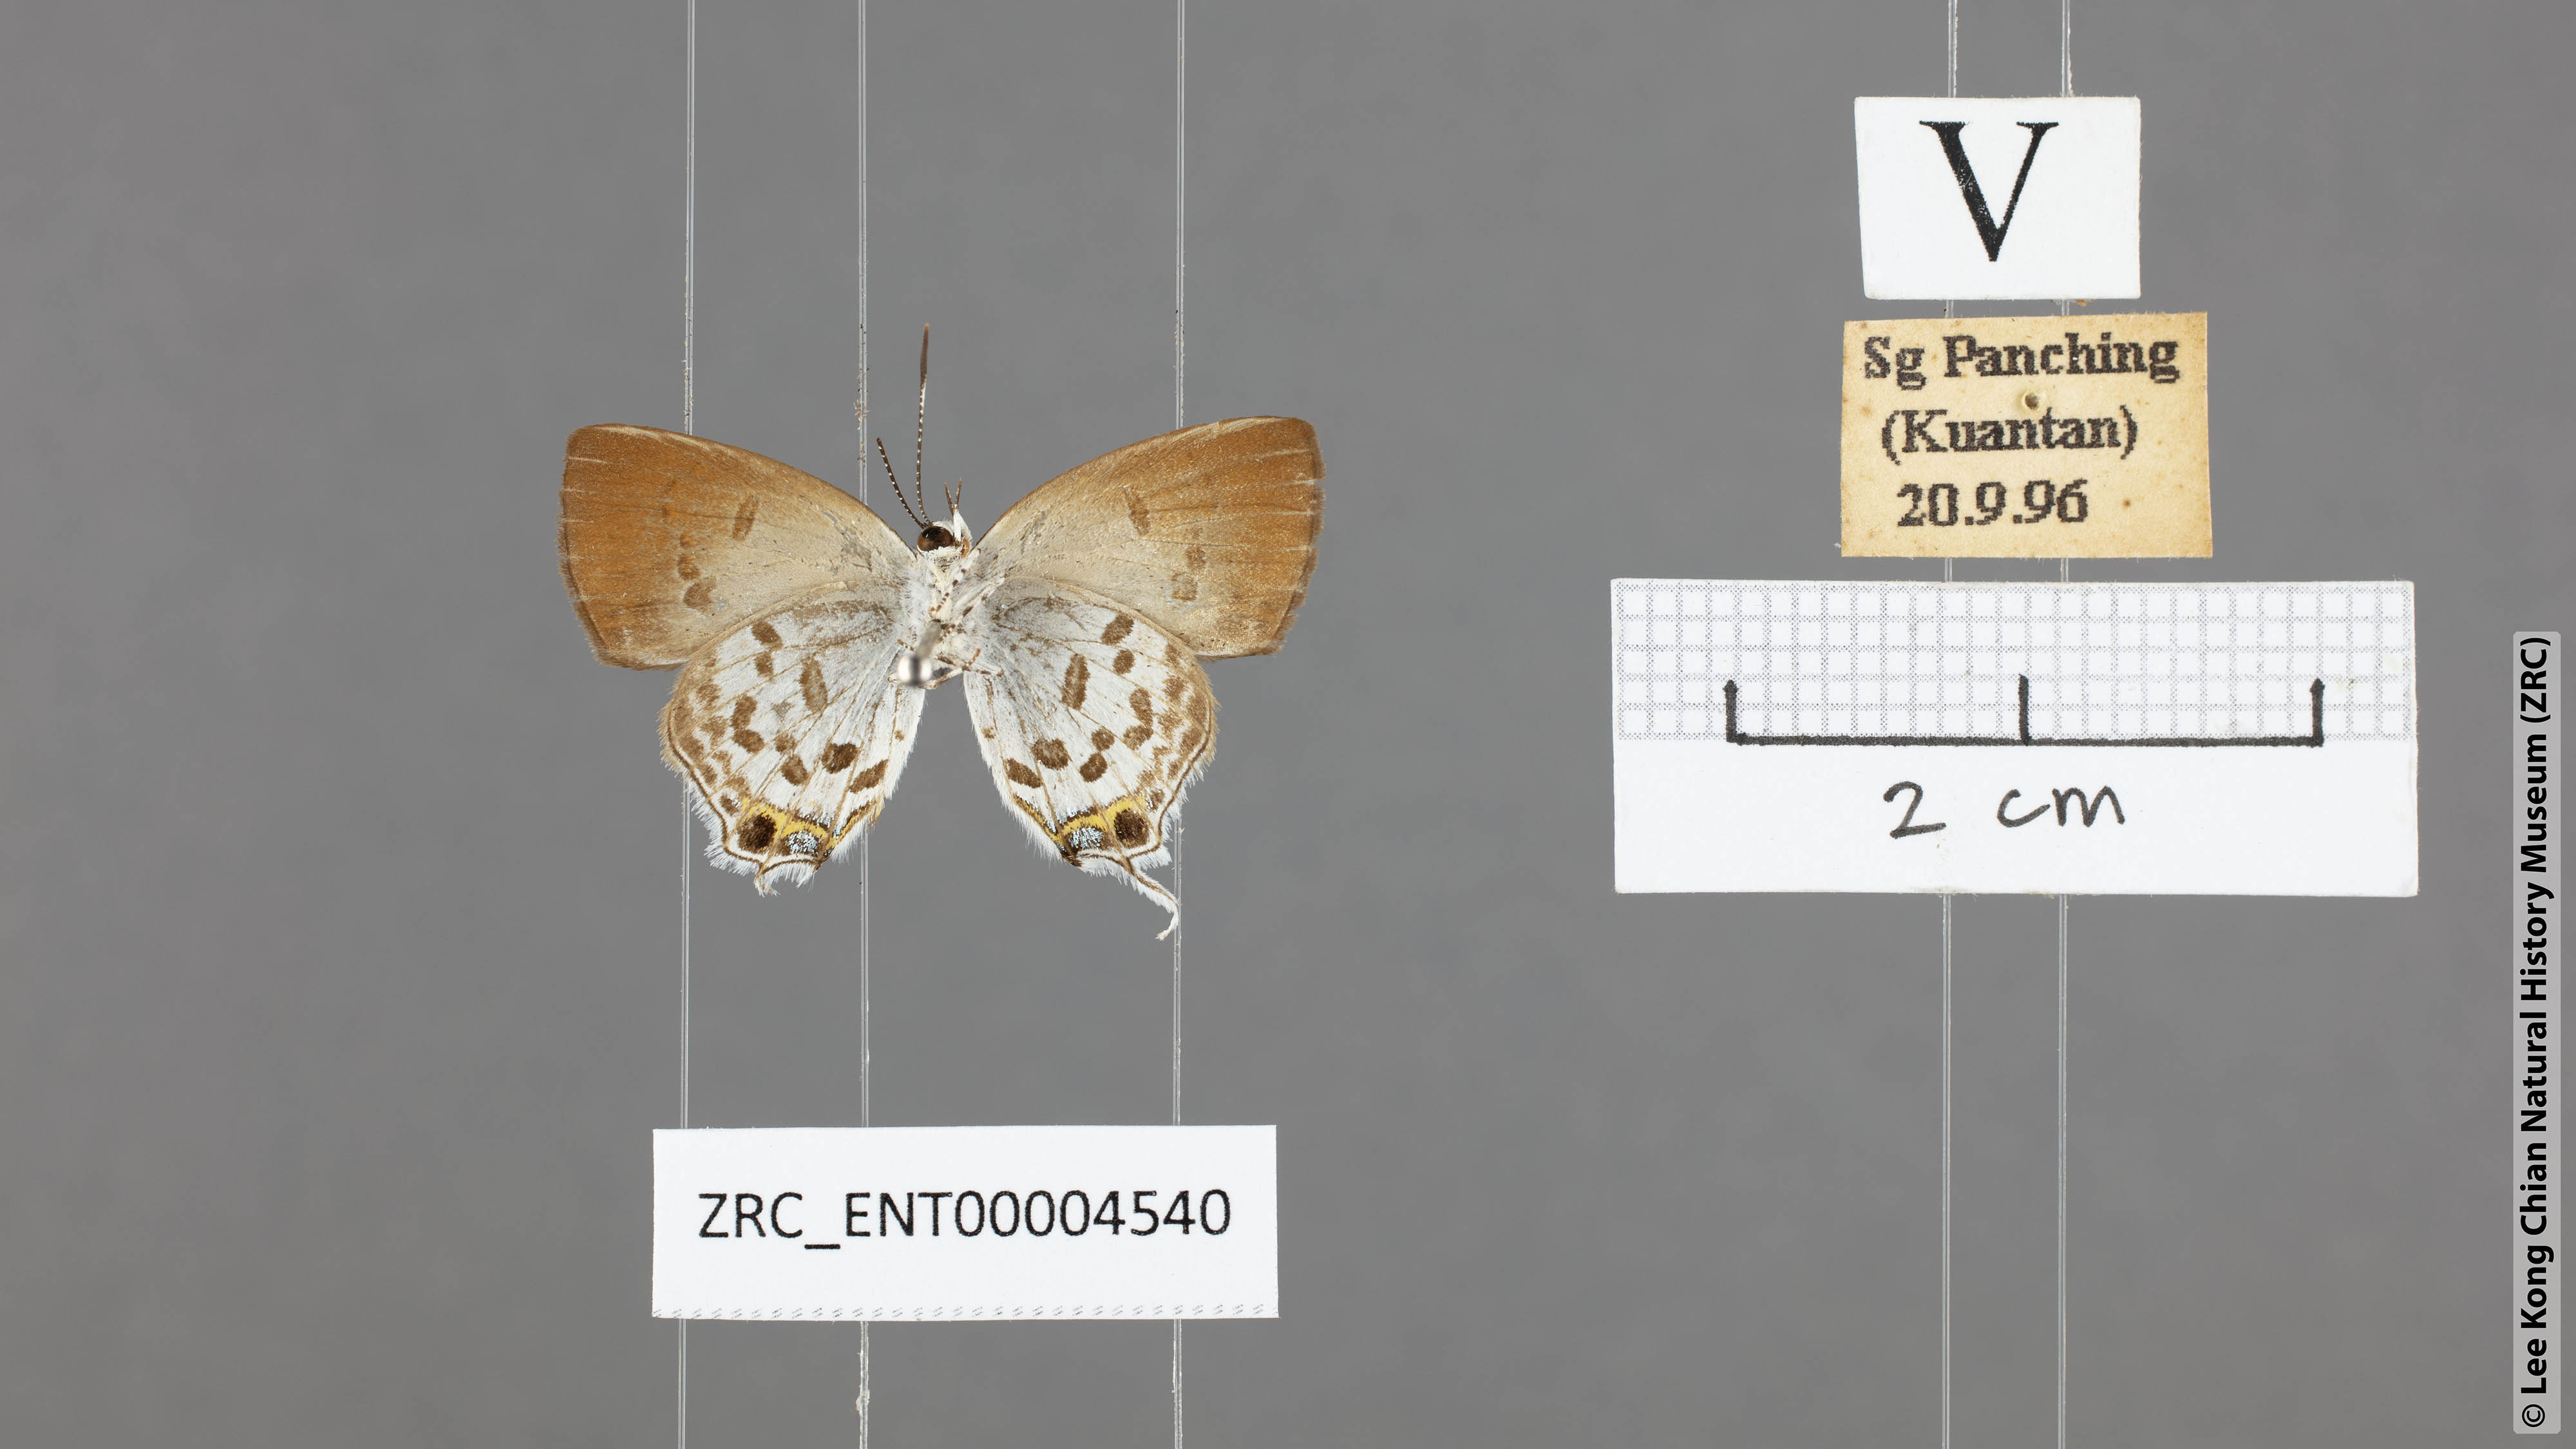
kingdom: Animalia
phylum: Arthropoda
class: Insecta
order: Lepidoptera
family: Lycaenidae
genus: Sinthusa
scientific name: Sinthusa malika
